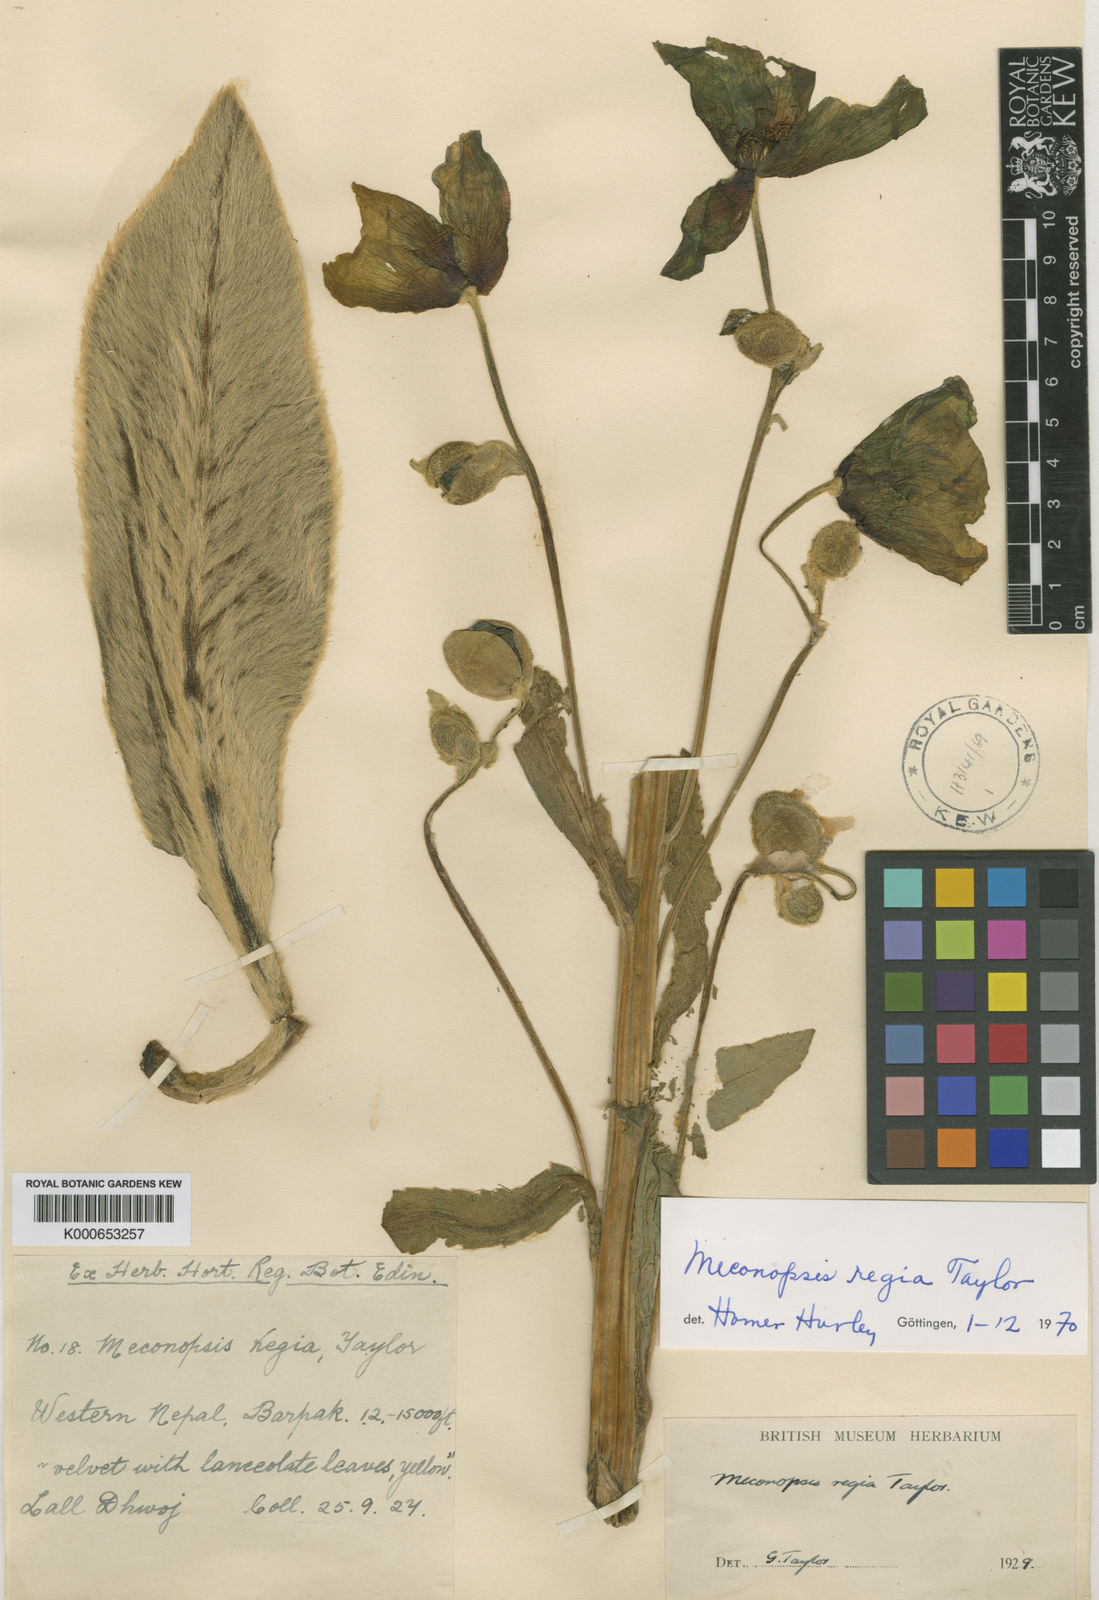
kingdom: Plantae
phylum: Tracheophyta
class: Magnoliopsida
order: Ranunculales
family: Papaveraceae
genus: Meconopsis
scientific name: Meconopsis regia
